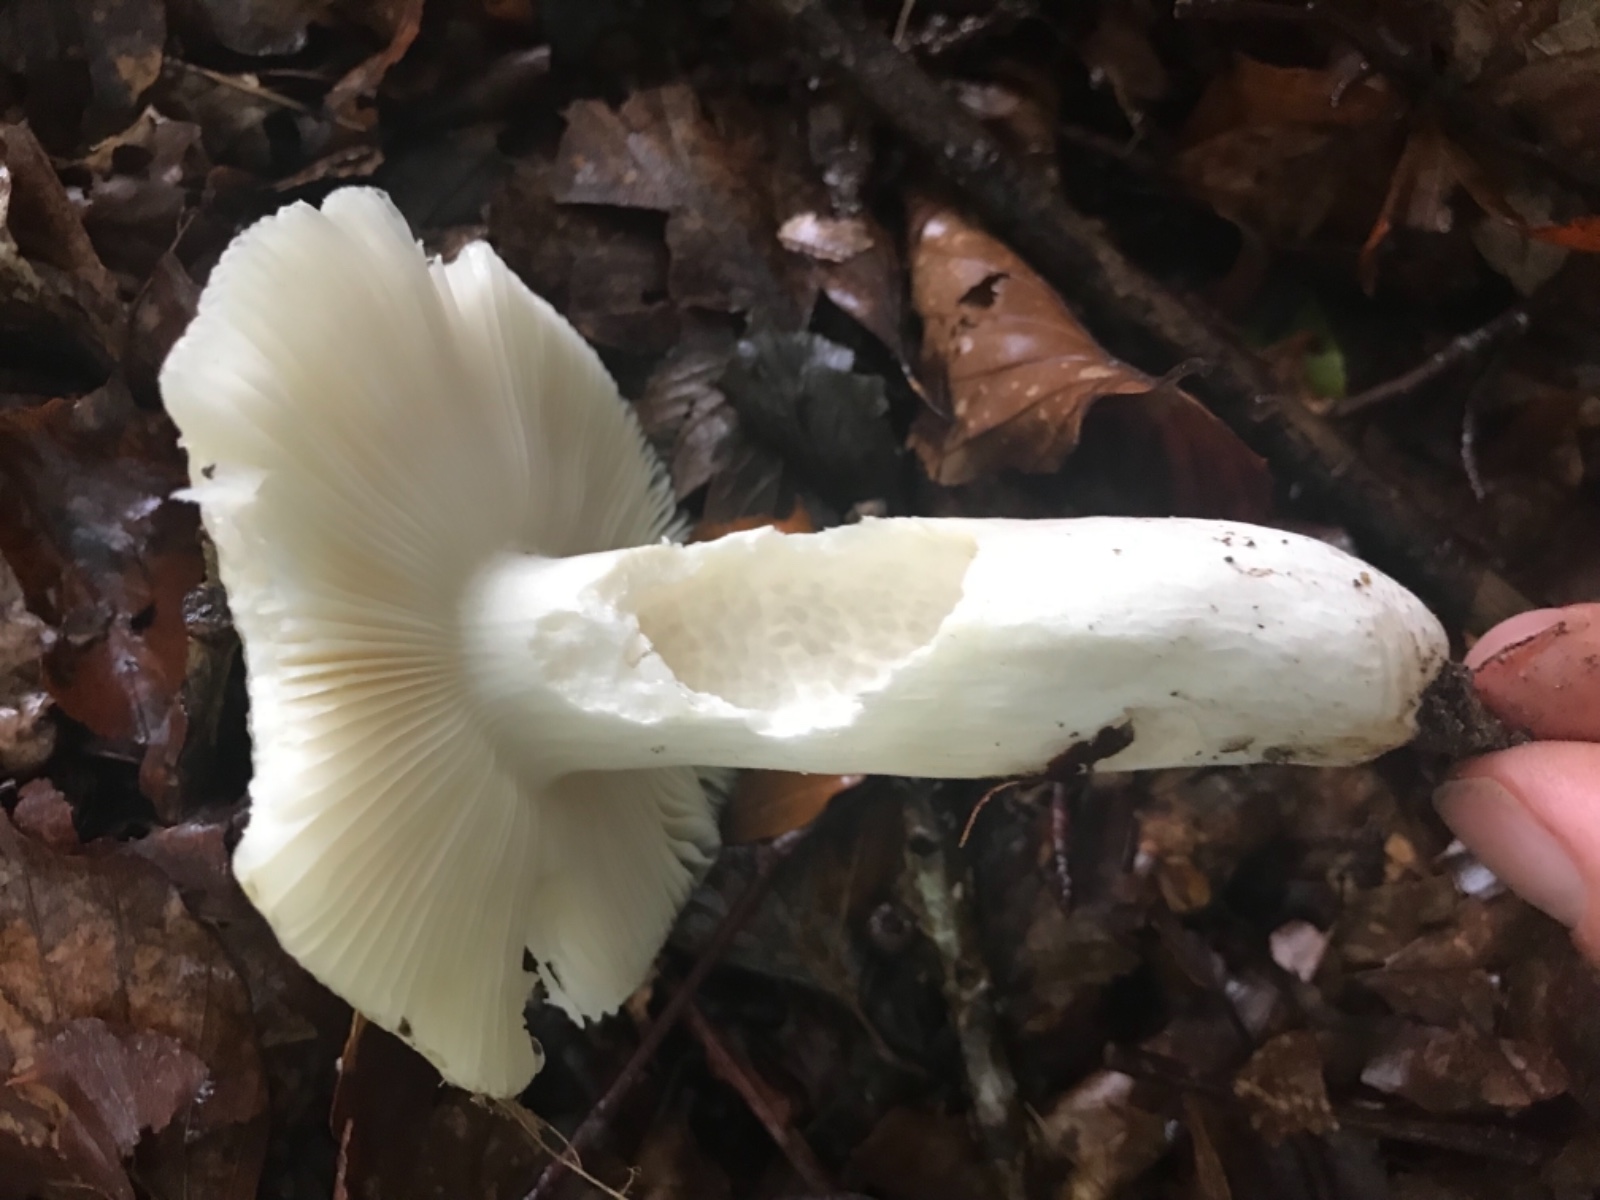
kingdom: Fungi
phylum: Basidiomycota
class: Agaricomycetes
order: Russulales
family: Russulaceae
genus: Russula
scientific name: Russula violeipes
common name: ferskengul skørhat
